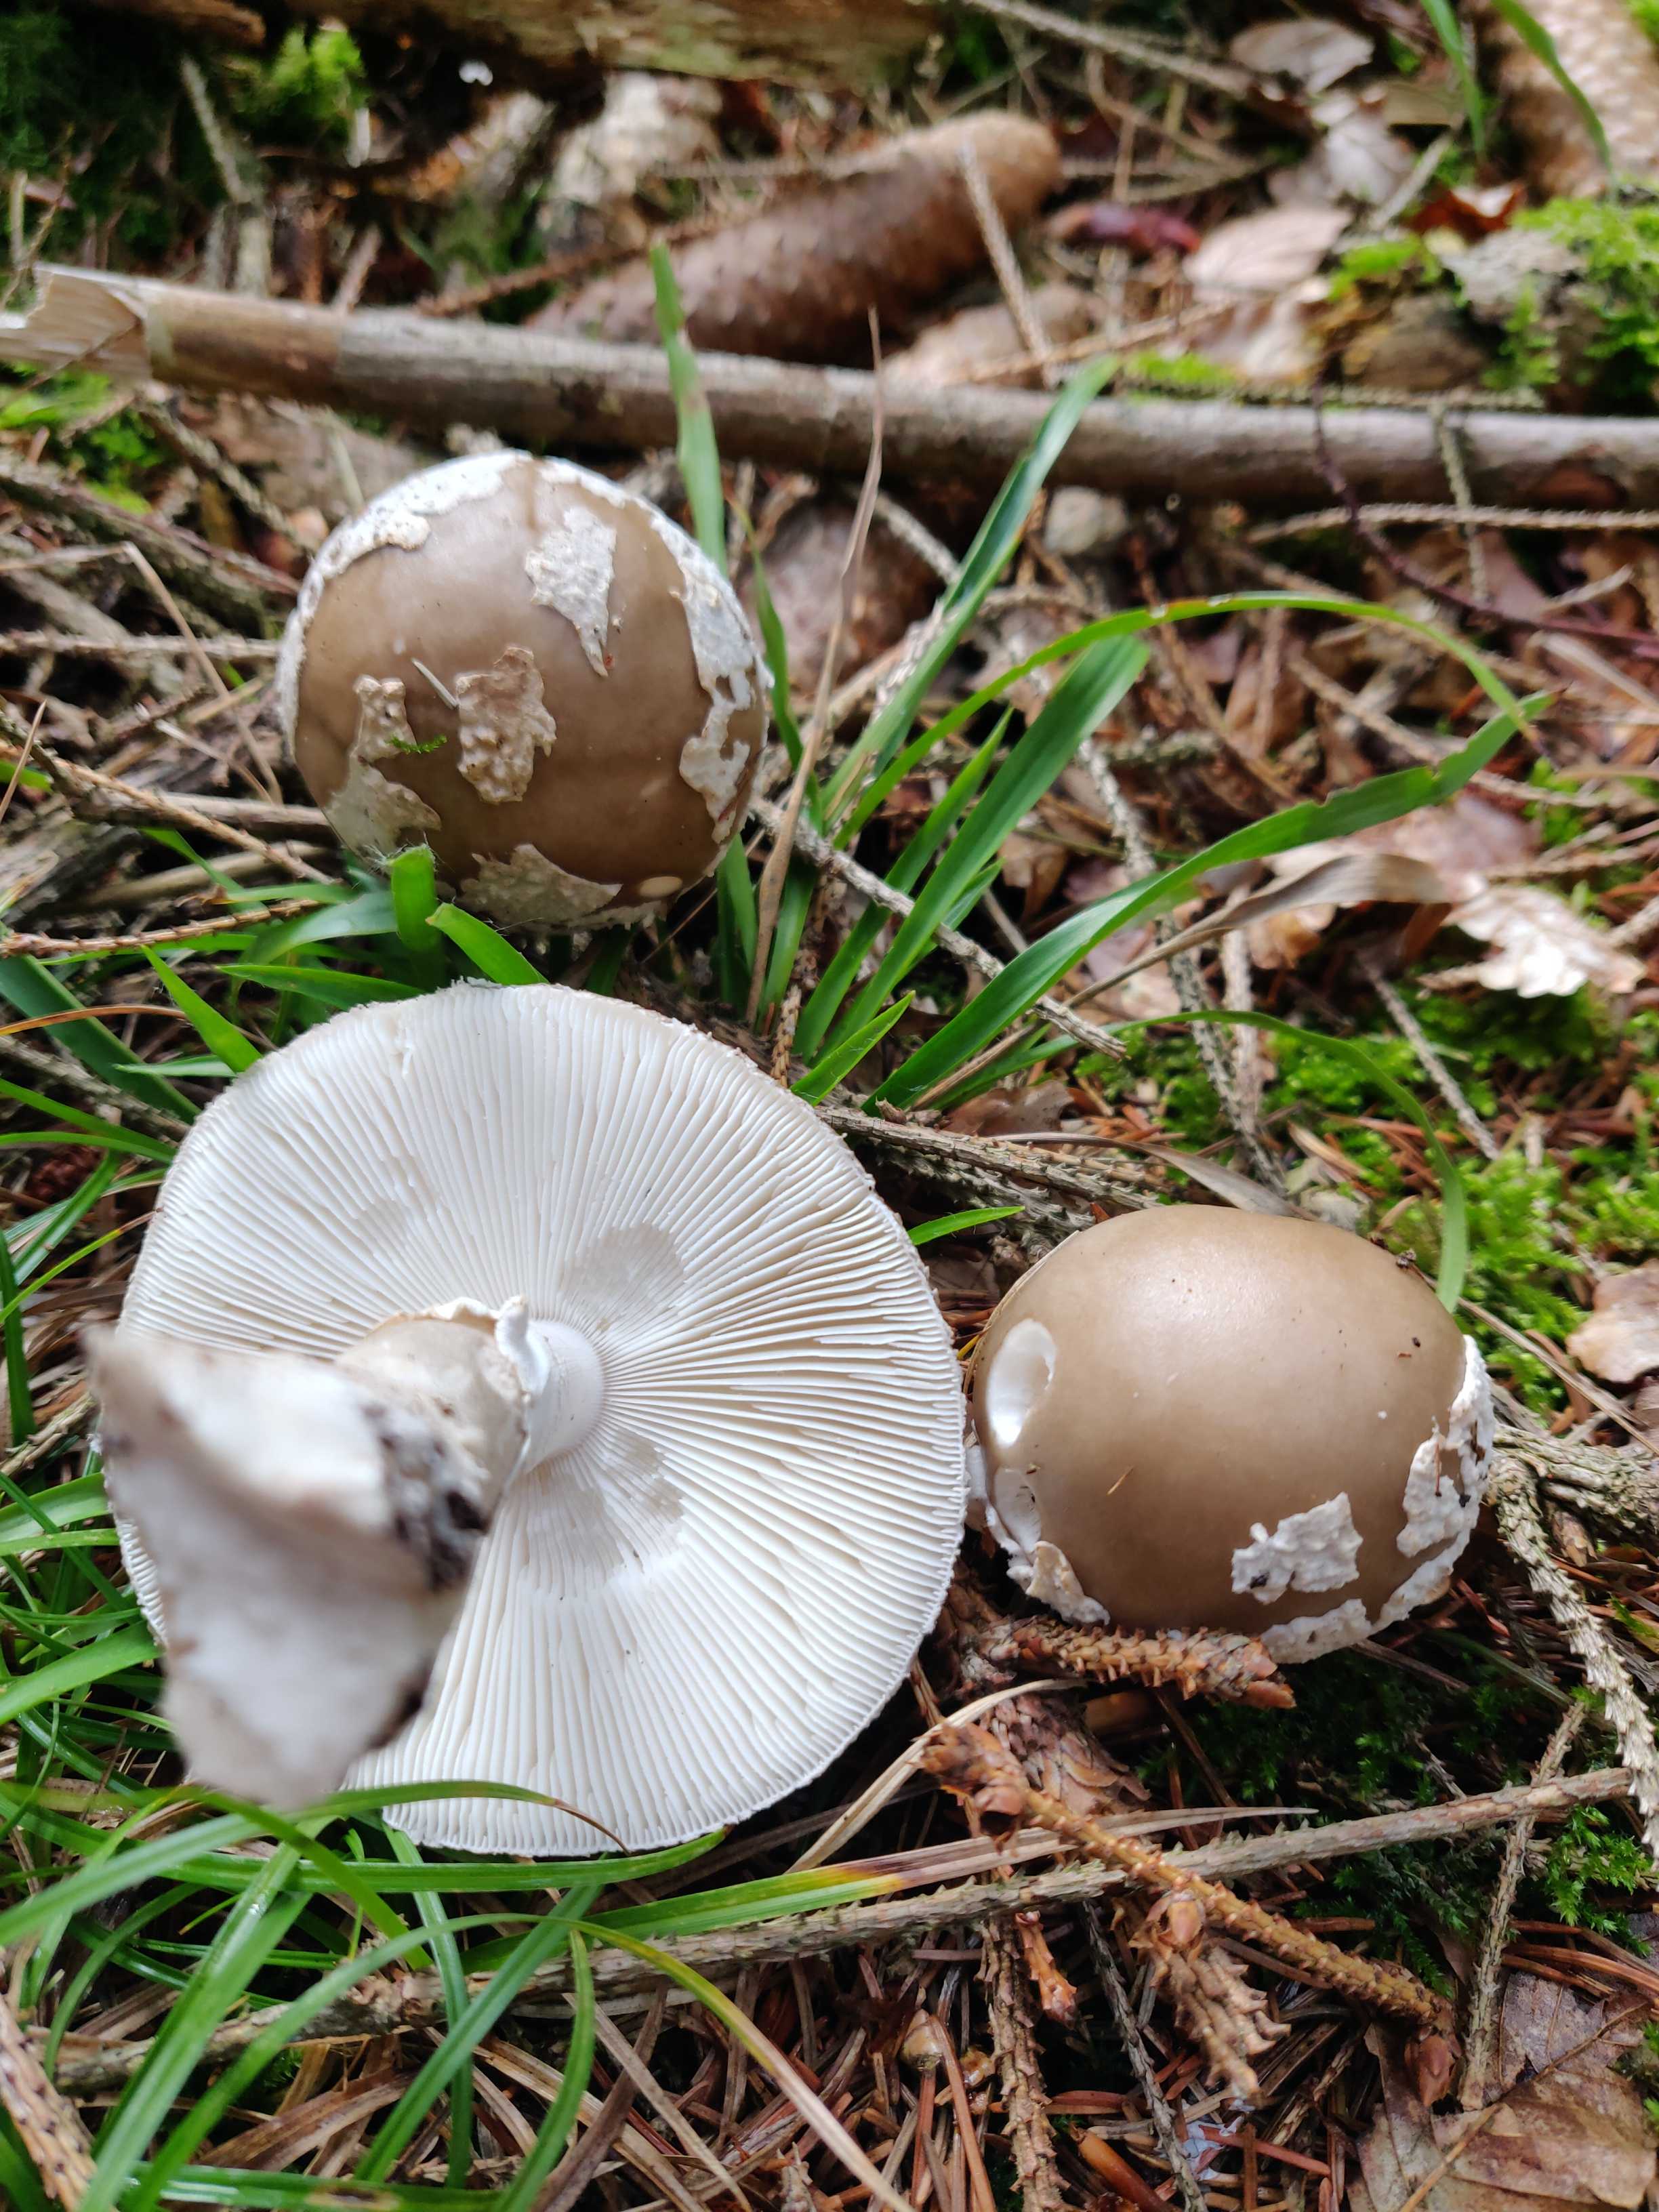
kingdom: Fungi
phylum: Basidiomycota
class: Agaricomycetes
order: Agaricales
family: Amanitaceae
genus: Amanita
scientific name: Amanita
